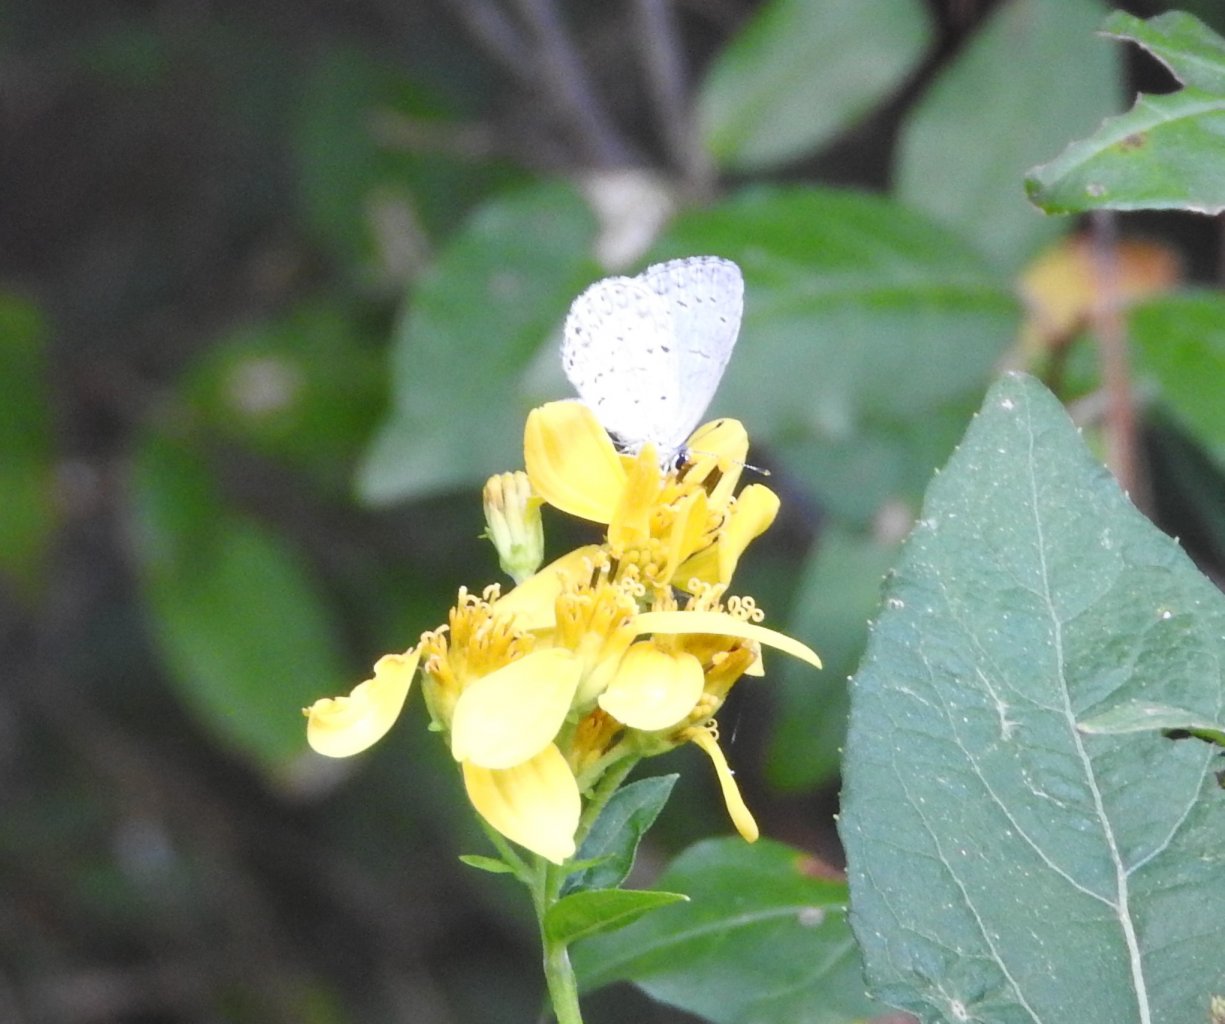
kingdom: Animalia
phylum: Arthropoda
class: Insecta
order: Lepidoptera
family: Lycaenidae
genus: Celastrina
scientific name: Celastrina
